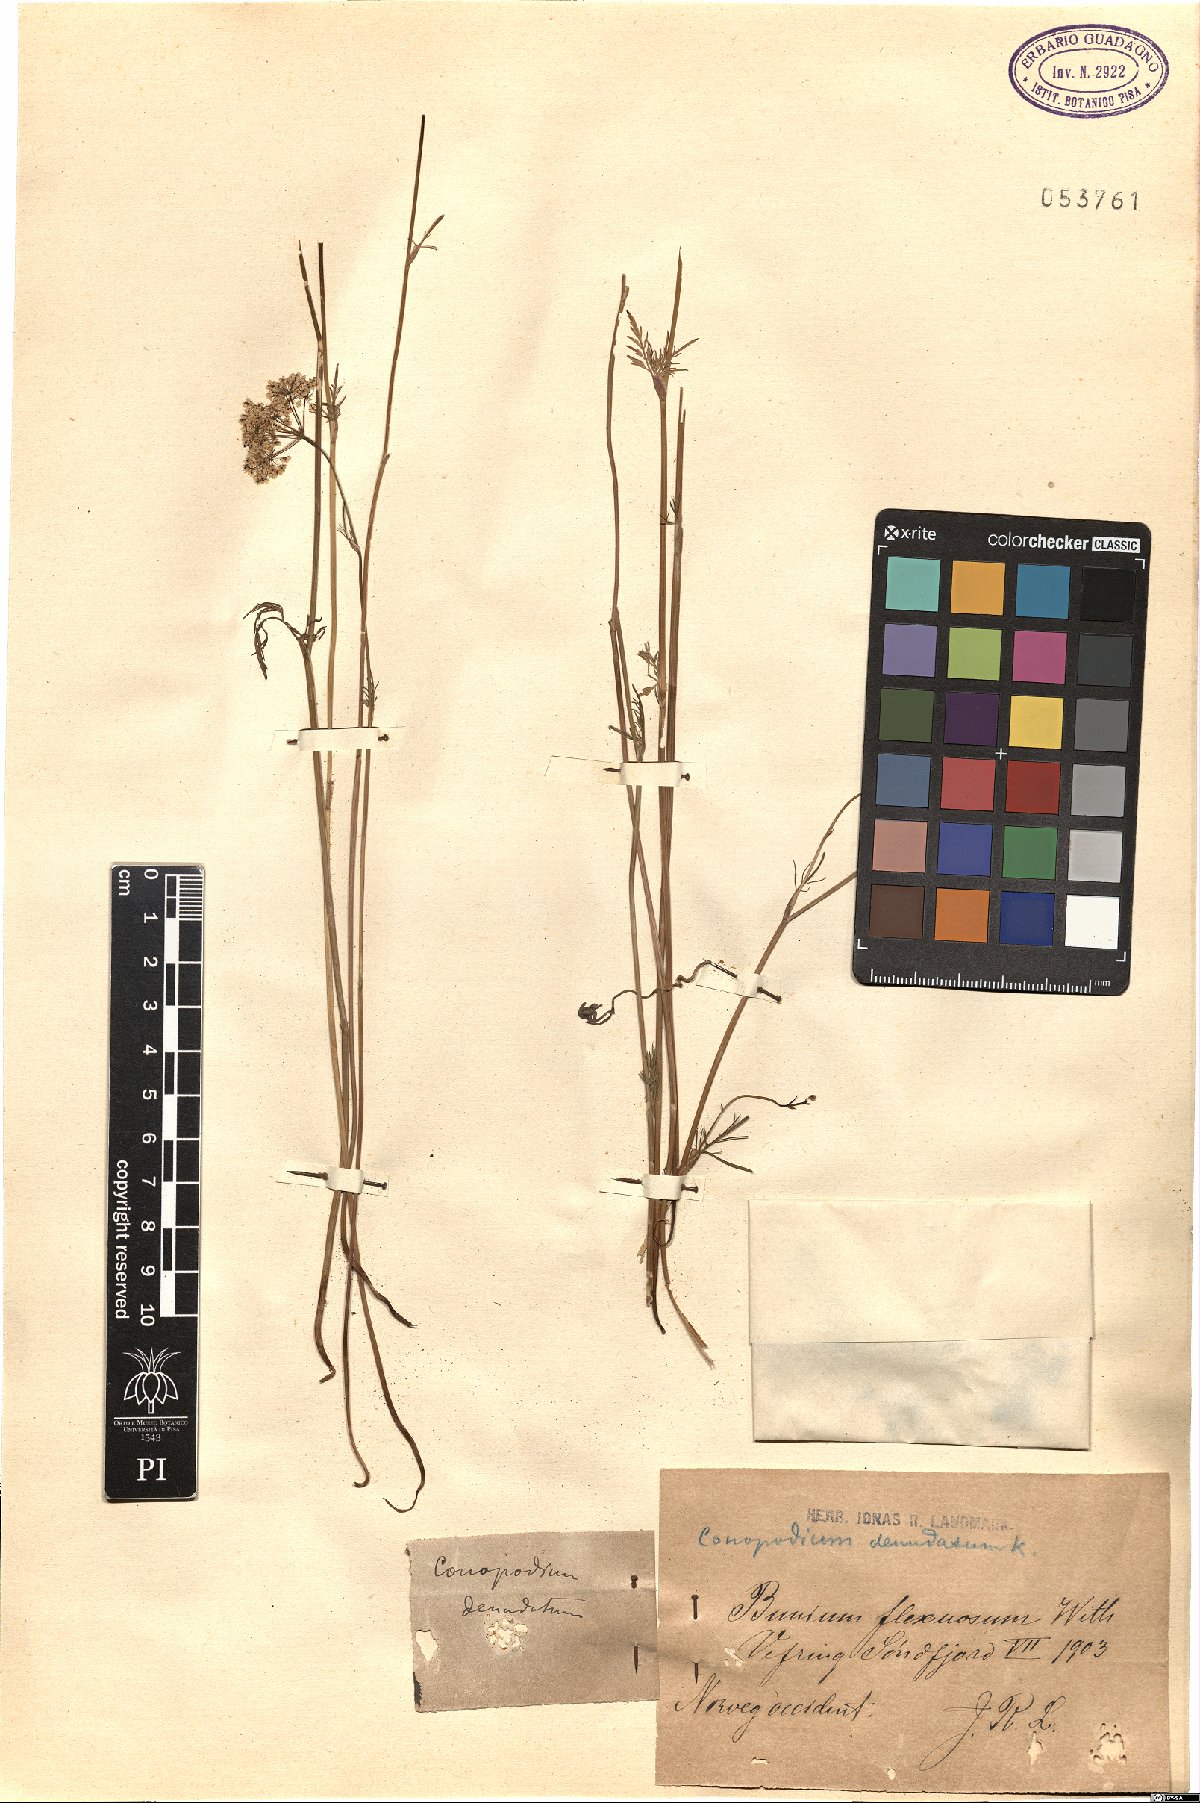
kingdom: Plantae
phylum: Tracheophyta
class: Magnoliopsida
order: Apiales
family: Apiaceae
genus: Conopodium
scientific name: Conopodium majus
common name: Pignut
